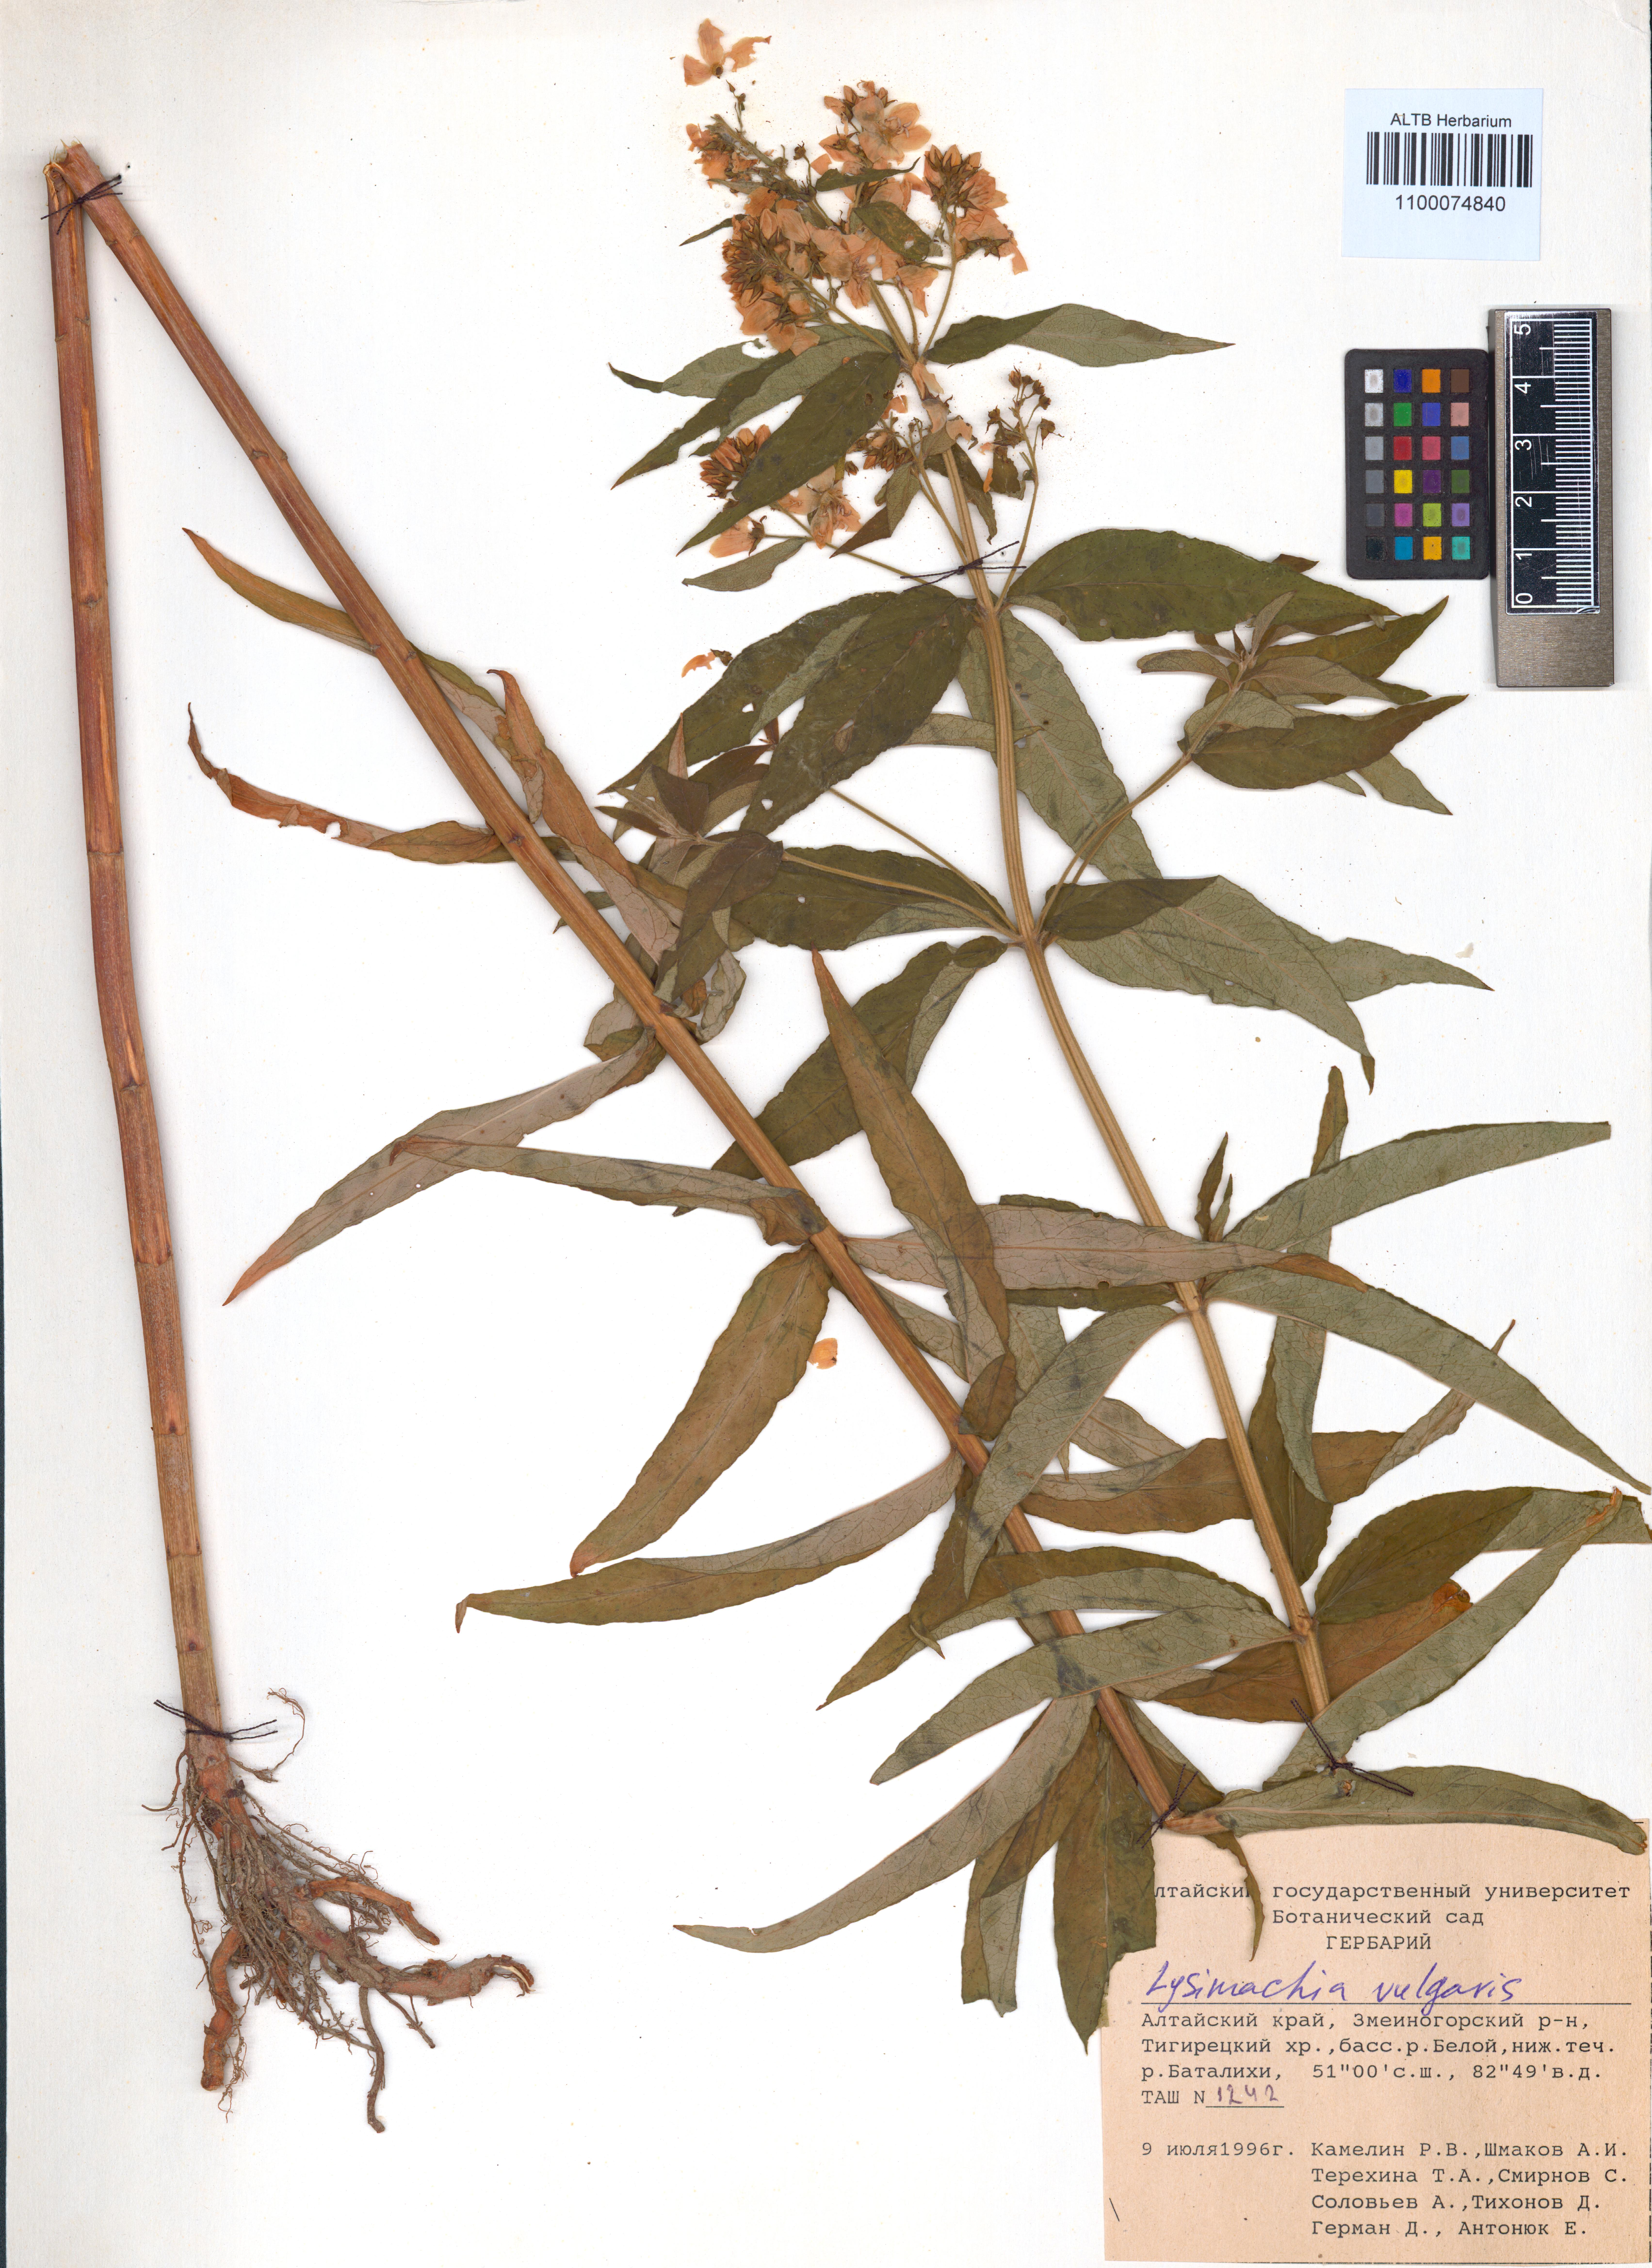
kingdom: Plantae
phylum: Tracheophyta
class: Magnoliopsida
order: Ericales
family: Primulaceae
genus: Lysimachia
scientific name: Lysimachia vulgaris
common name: Yellow loosestrife
